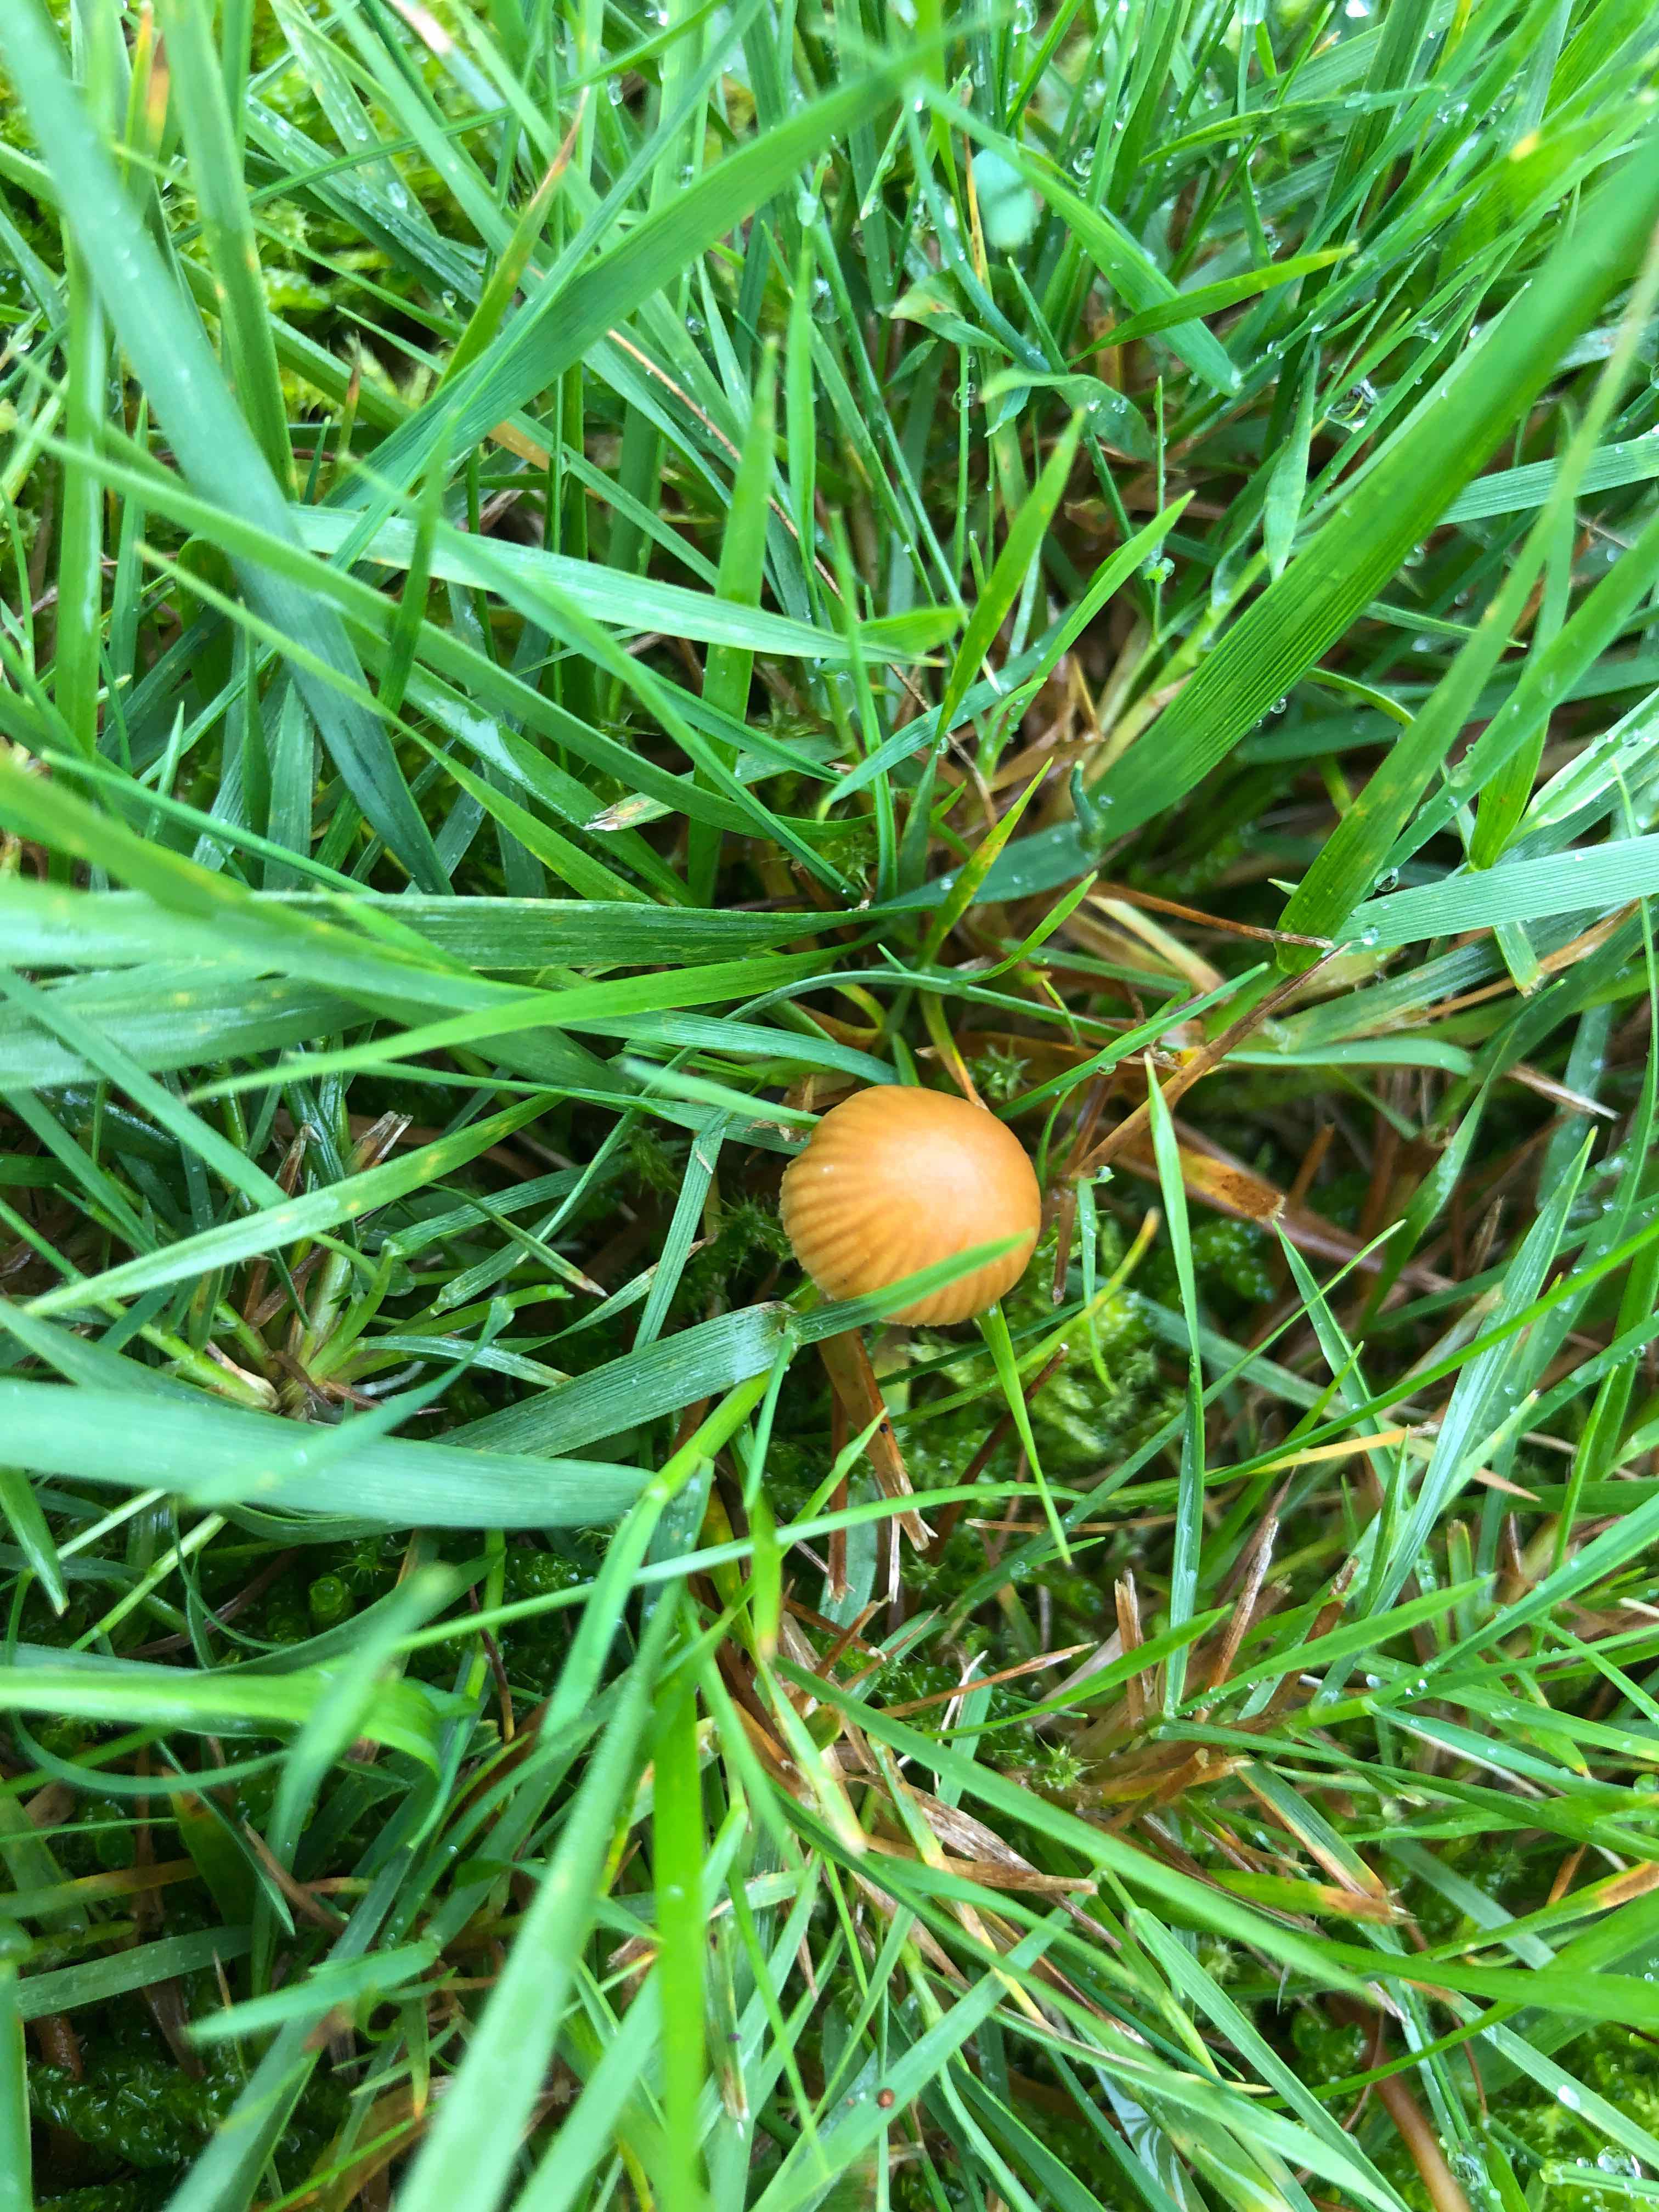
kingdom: Fungi
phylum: Basidiomycota
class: Agaricomycetes
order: Agaricales
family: Hymenogastraceae
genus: Galerina
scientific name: Galerina
